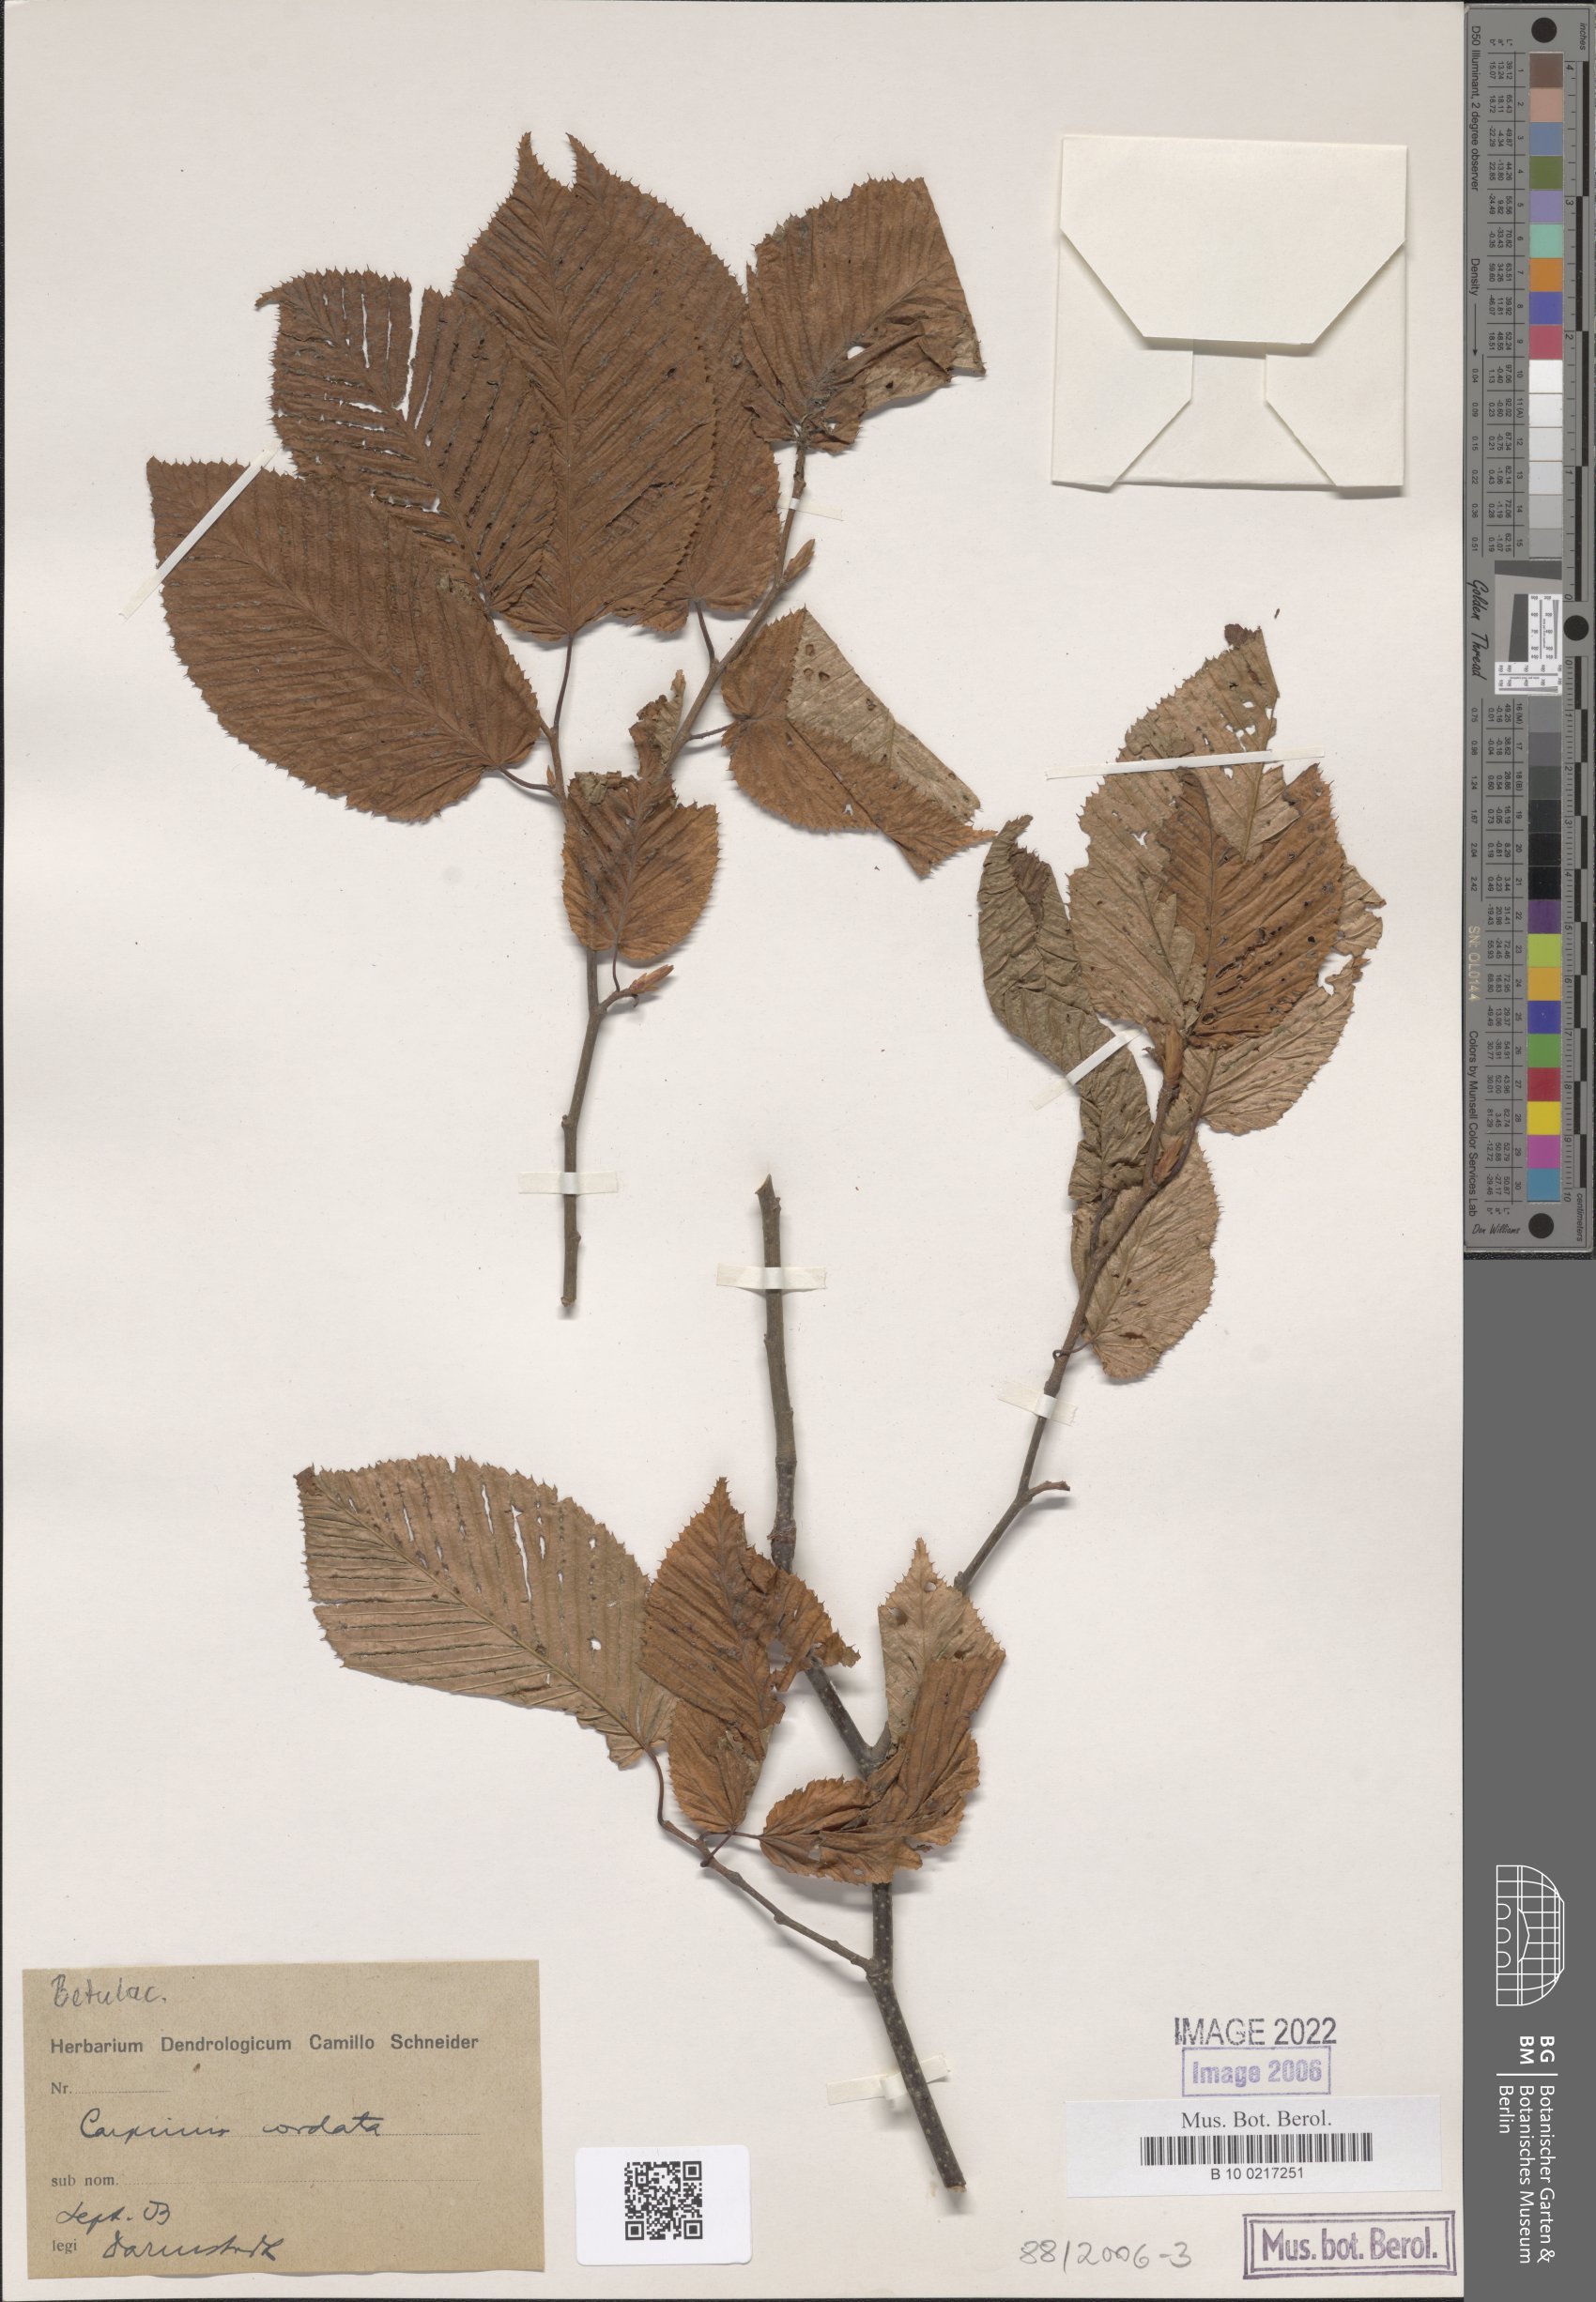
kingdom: Plantae
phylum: Tracheophyta
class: Magnoliopsida
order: Fagales
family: Betulaceae
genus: Carpinus
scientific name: Carpinus cordata
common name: Sawa hornbeam
